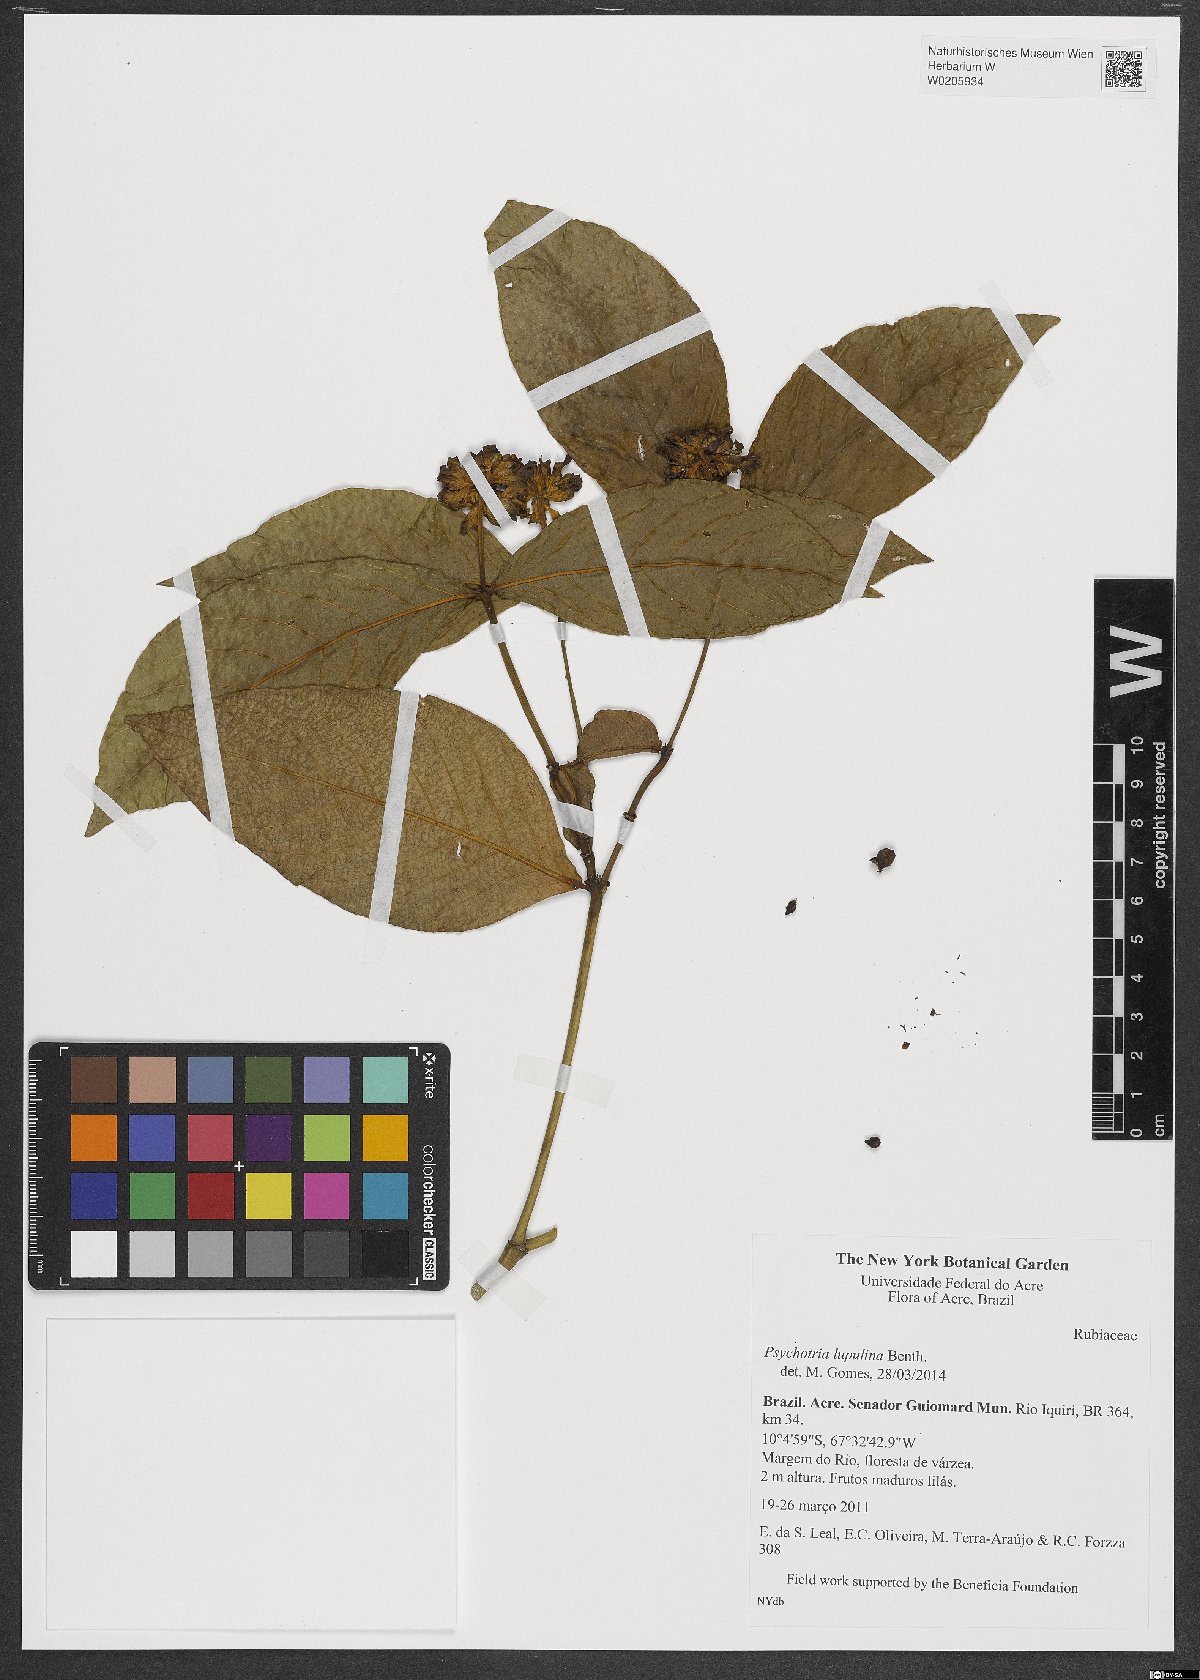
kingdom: Plantae
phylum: Tracheophyta
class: Magnoliopsida
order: Gentianales
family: Rubiaceae
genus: Palicourea
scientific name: Palicourea justiciifolia
